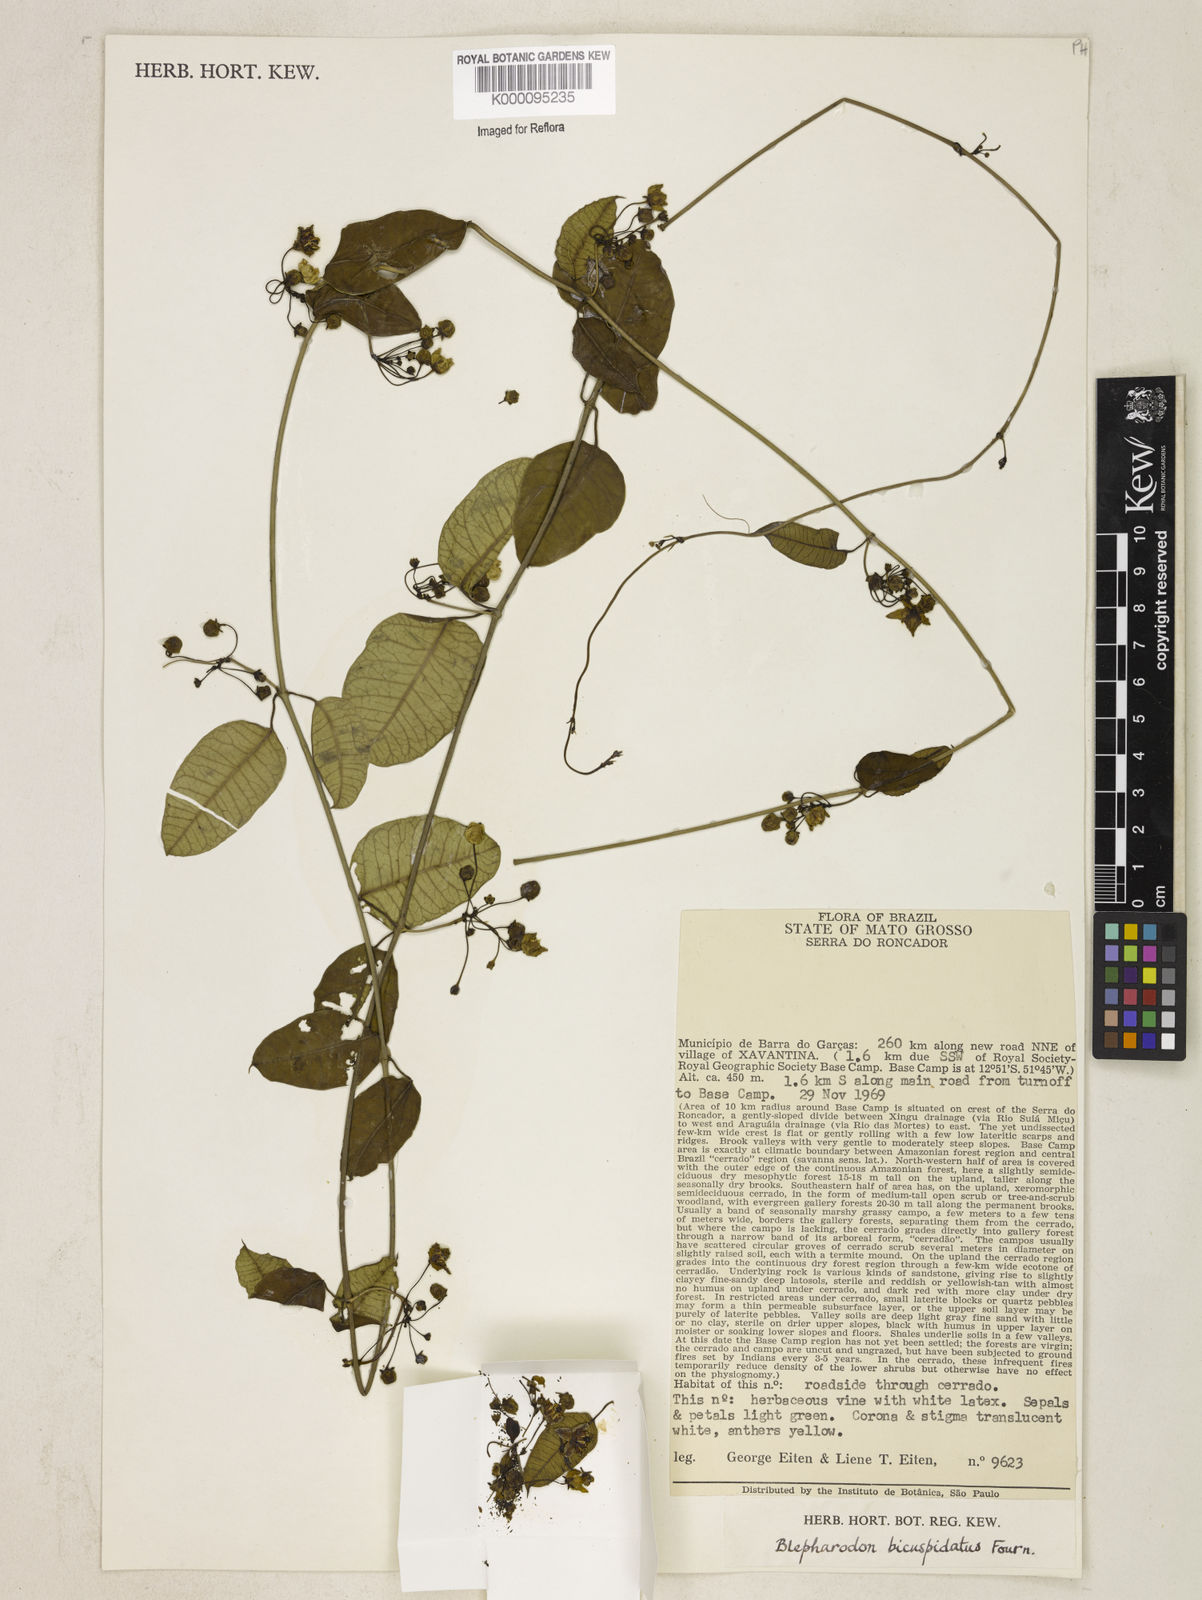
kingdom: Plantae
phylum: Tracheophyta
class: Magnoliopsida
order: Gentianales
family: Apocynaceae
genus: Blepharodon
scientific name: Blepharodon bicuspidatum
